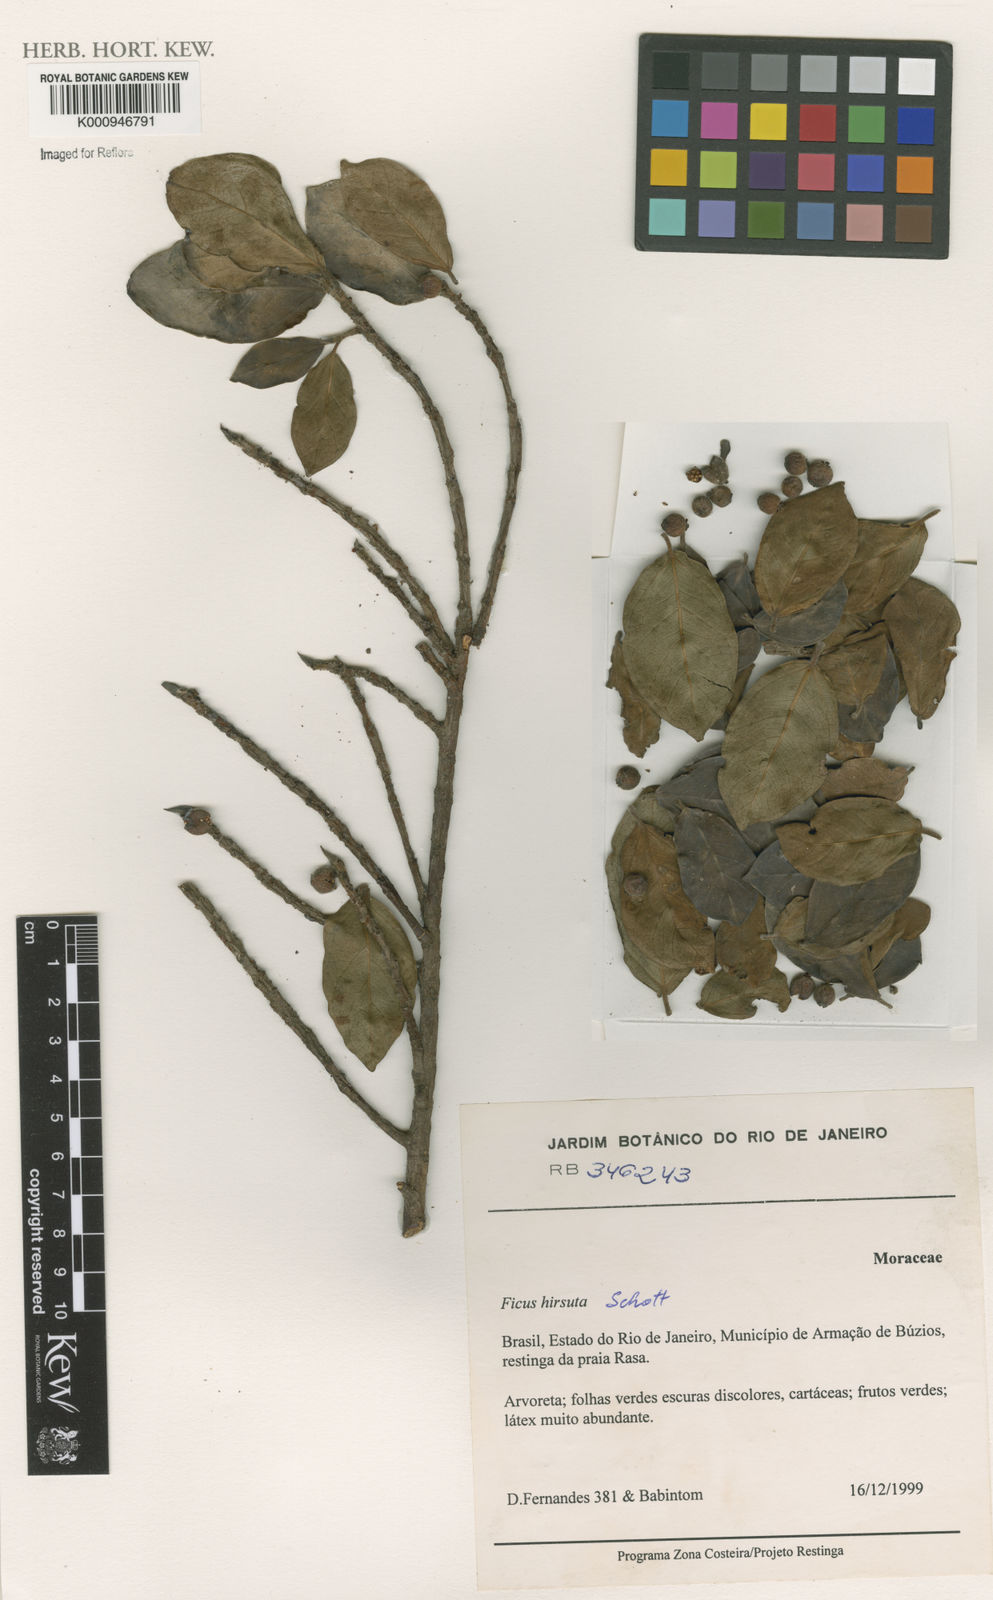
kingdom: Plantae
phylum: Tracheophyta
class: Magnoliopsida
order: Rosales
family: Moraceae
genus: Ficus
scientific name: Ficus hirsuta
